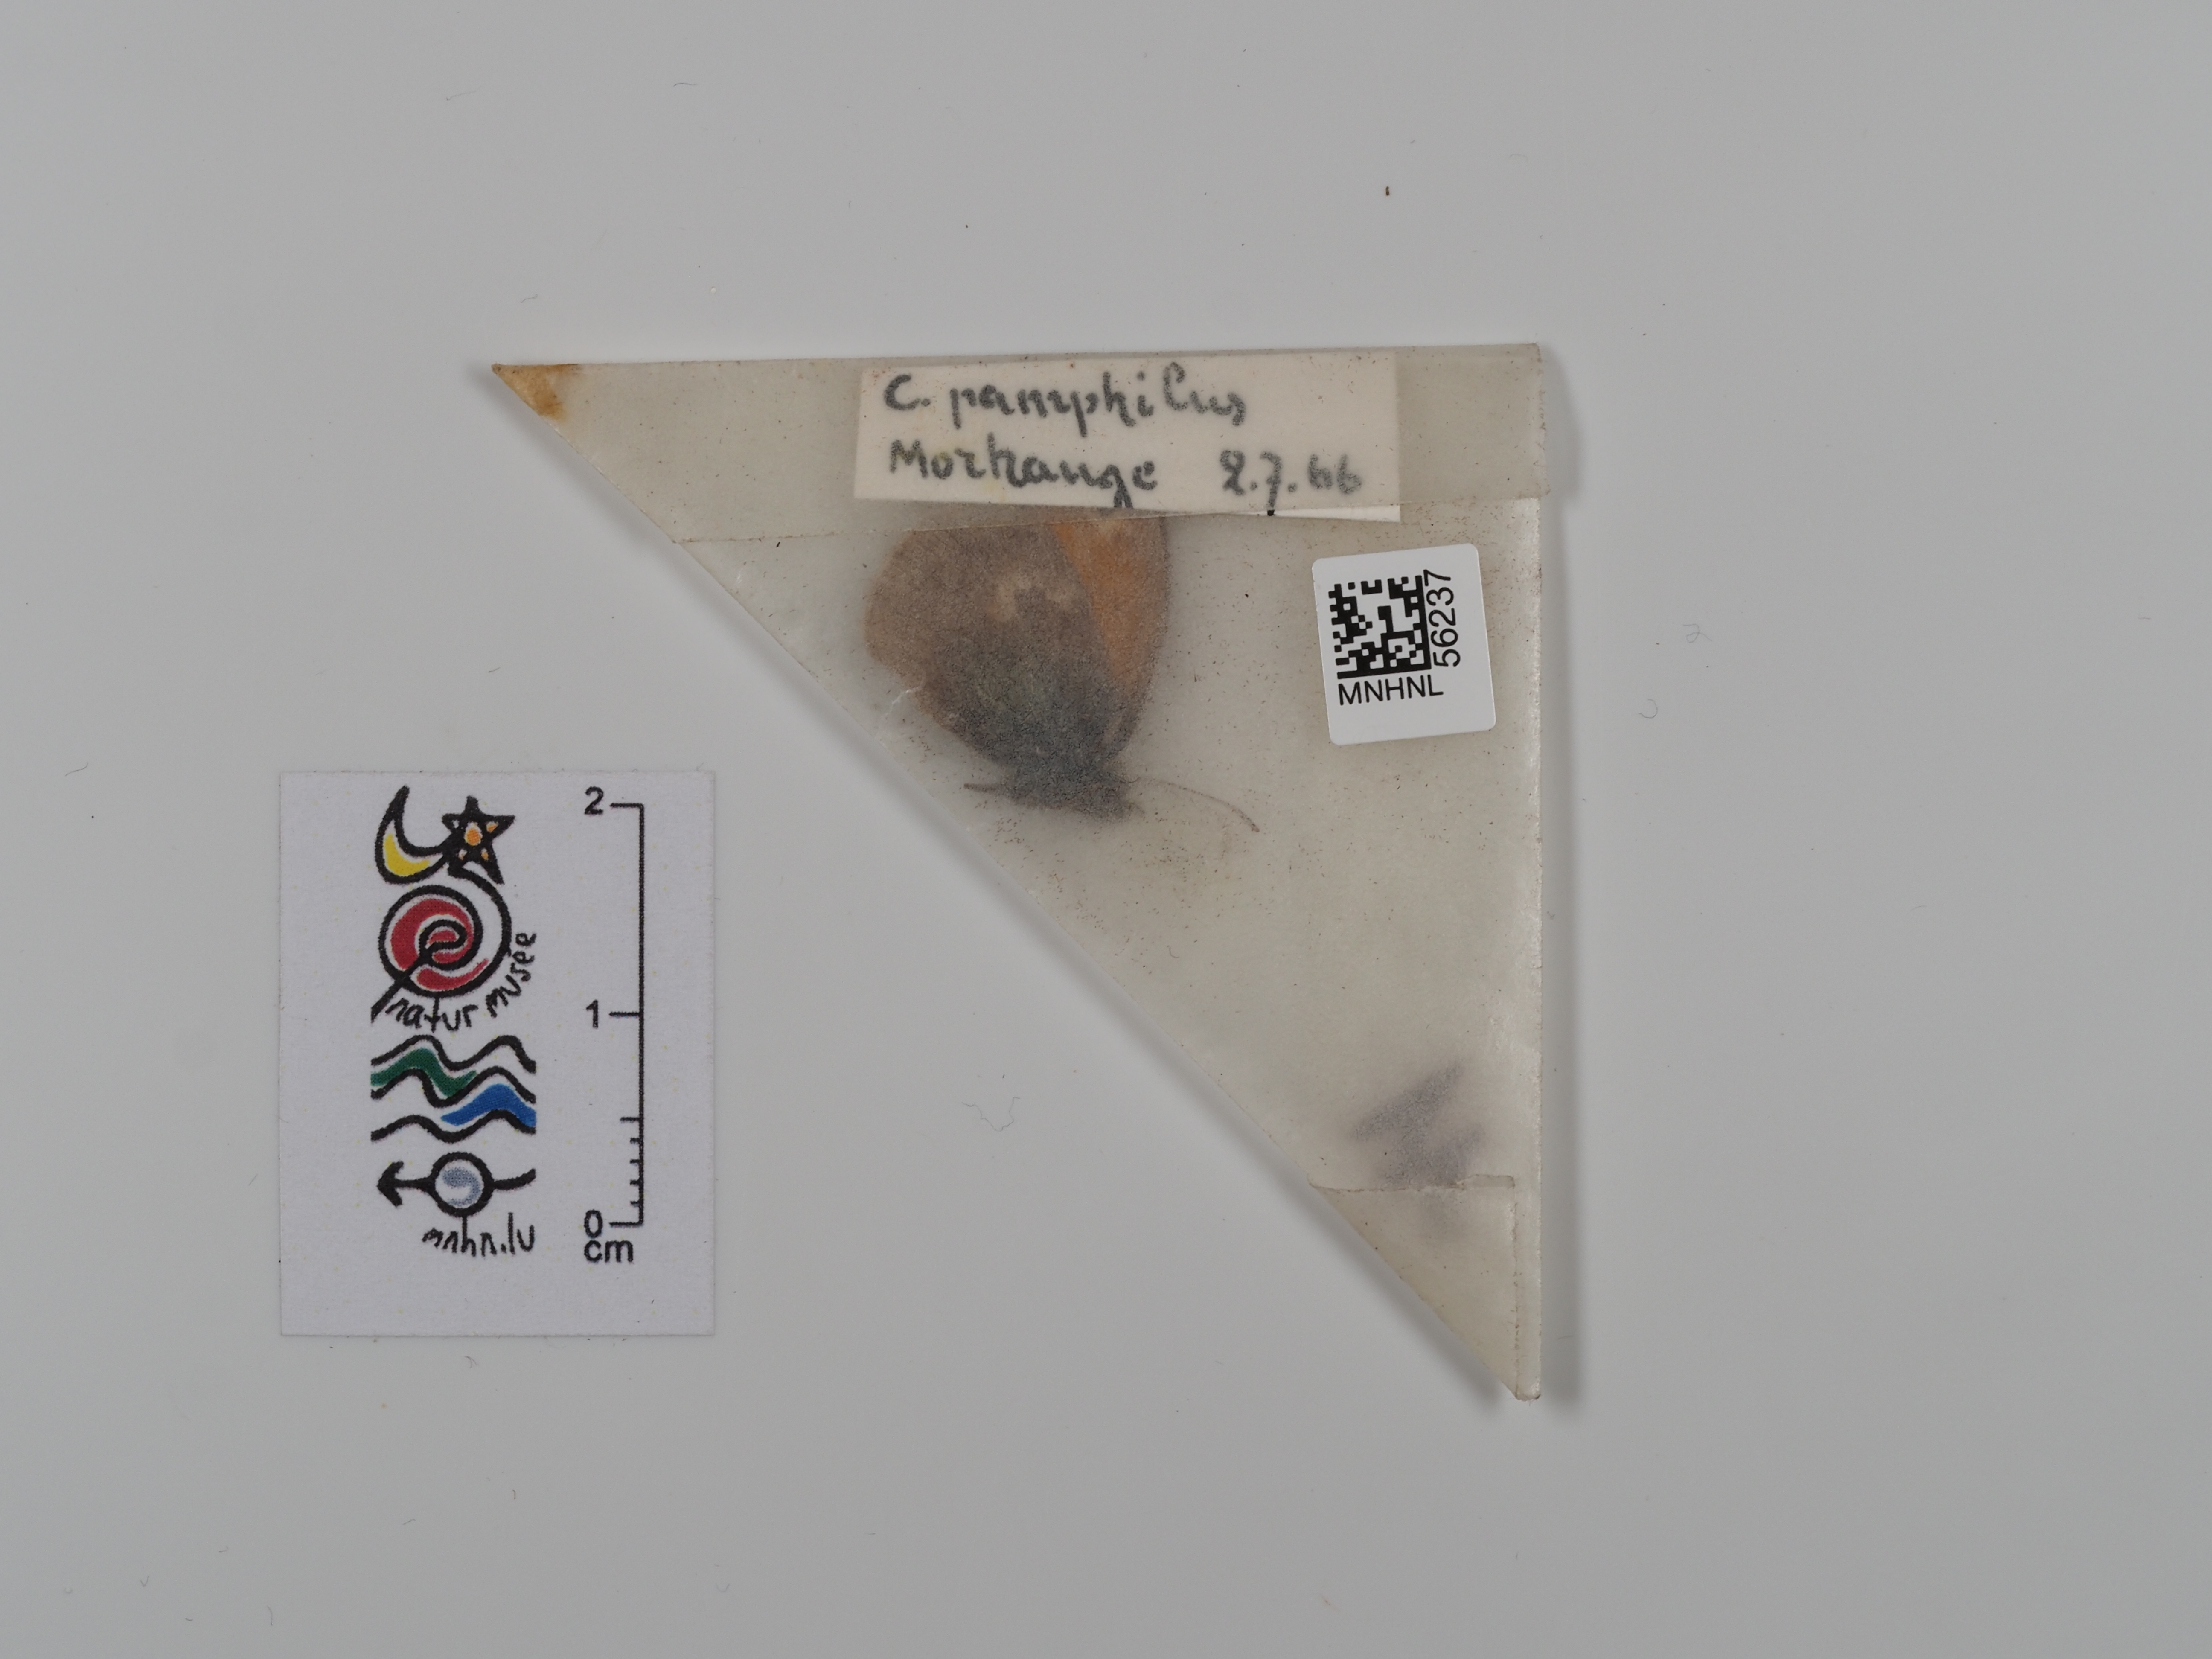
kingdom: Animalia
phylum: Arthropoda
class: Insecta
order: Lepidoptera
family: Nymphalidae
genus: Coenonympha
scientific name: Coenonympha pamphilus
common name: Small heath
